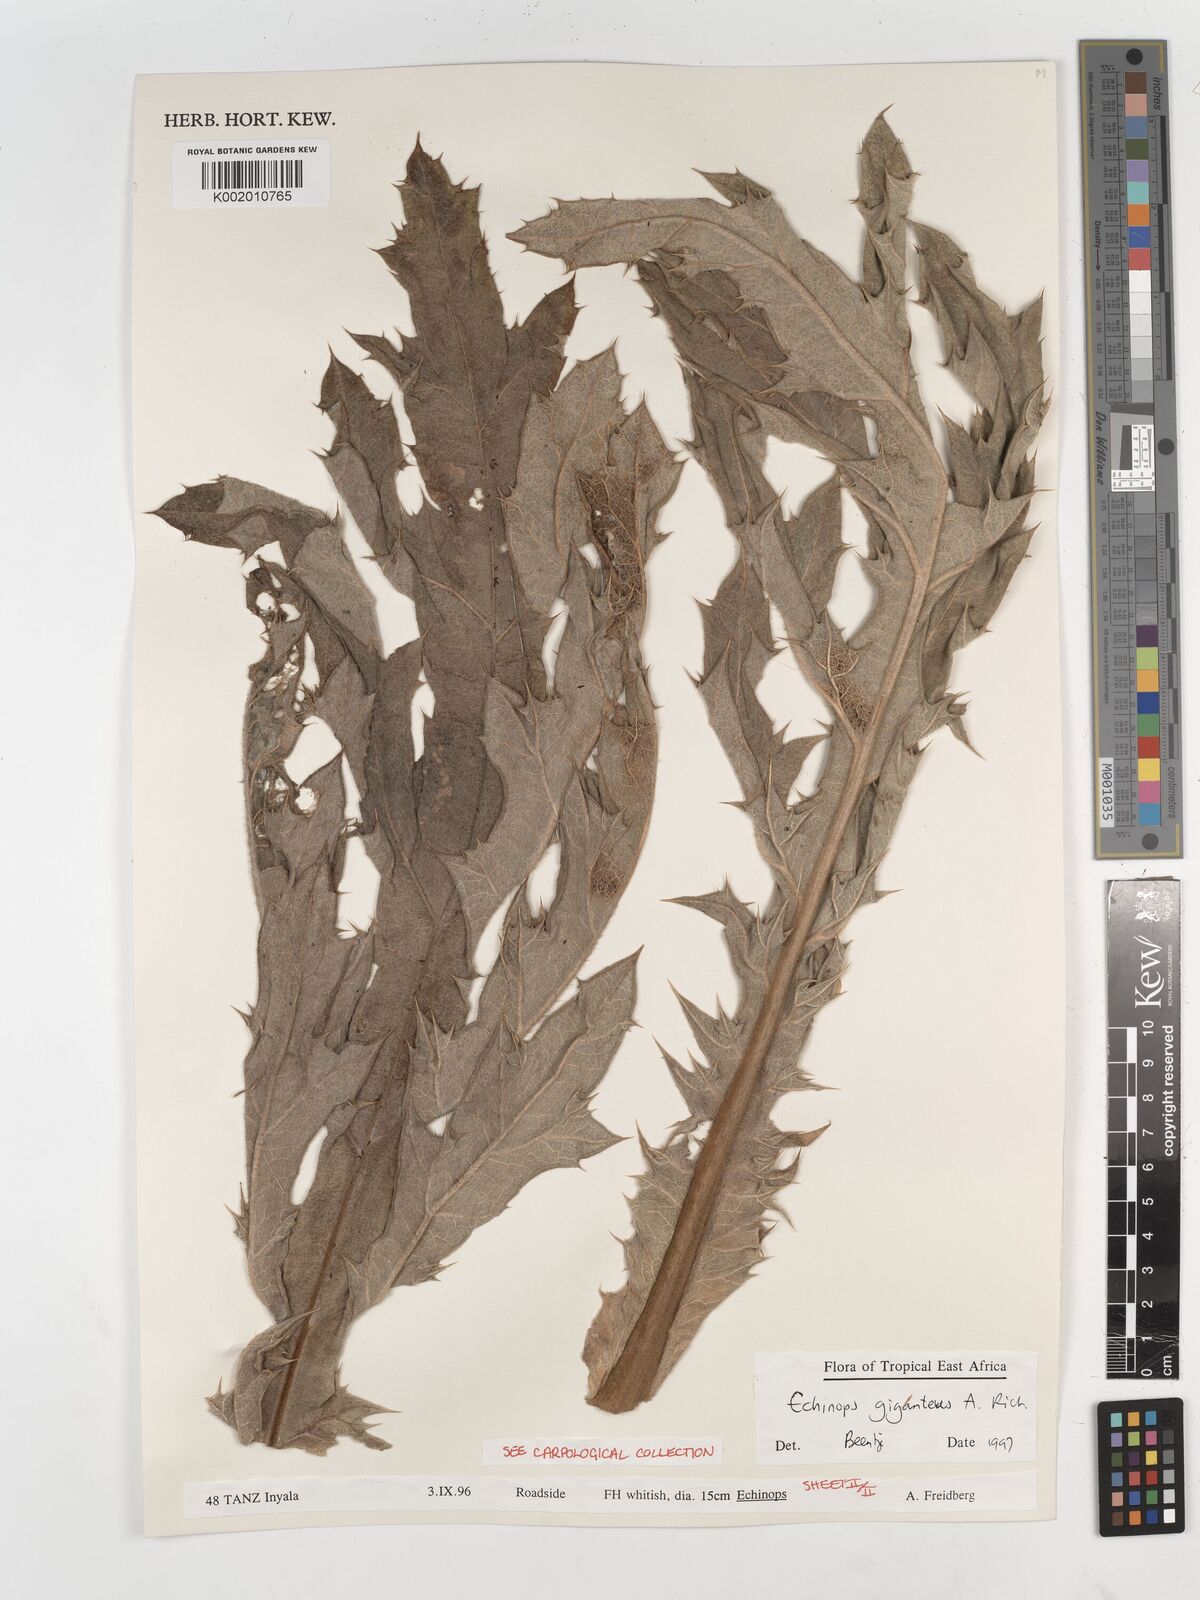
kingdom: Plantae
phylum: Tracheophyta
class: Magnoliopsida
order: Asterales
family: Asteraceae
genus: Echinops
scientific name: Echinops giganteus
